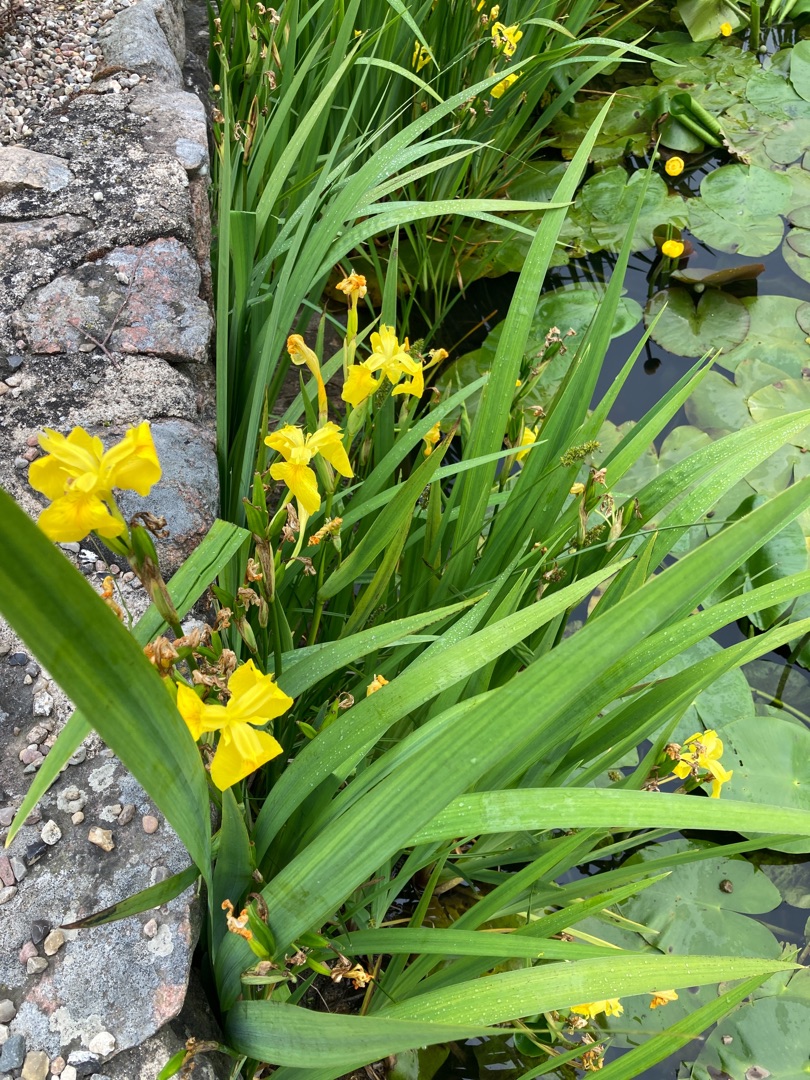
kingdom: Plantae
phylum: Tracheophyta
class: Liliopsida
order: Asparagales
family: Iridaceae
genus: Iris
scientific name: Iris pseudacorus
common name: Gul iris
